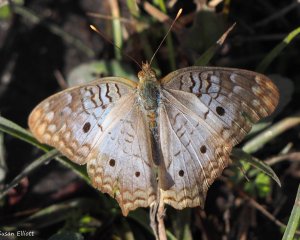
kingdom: Animalia
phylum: Arthropoda
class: Insecta
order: Lepidoptera
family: Nymphalidae
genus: Anartia
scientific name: Anartia jatrophae
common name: White Peacock
